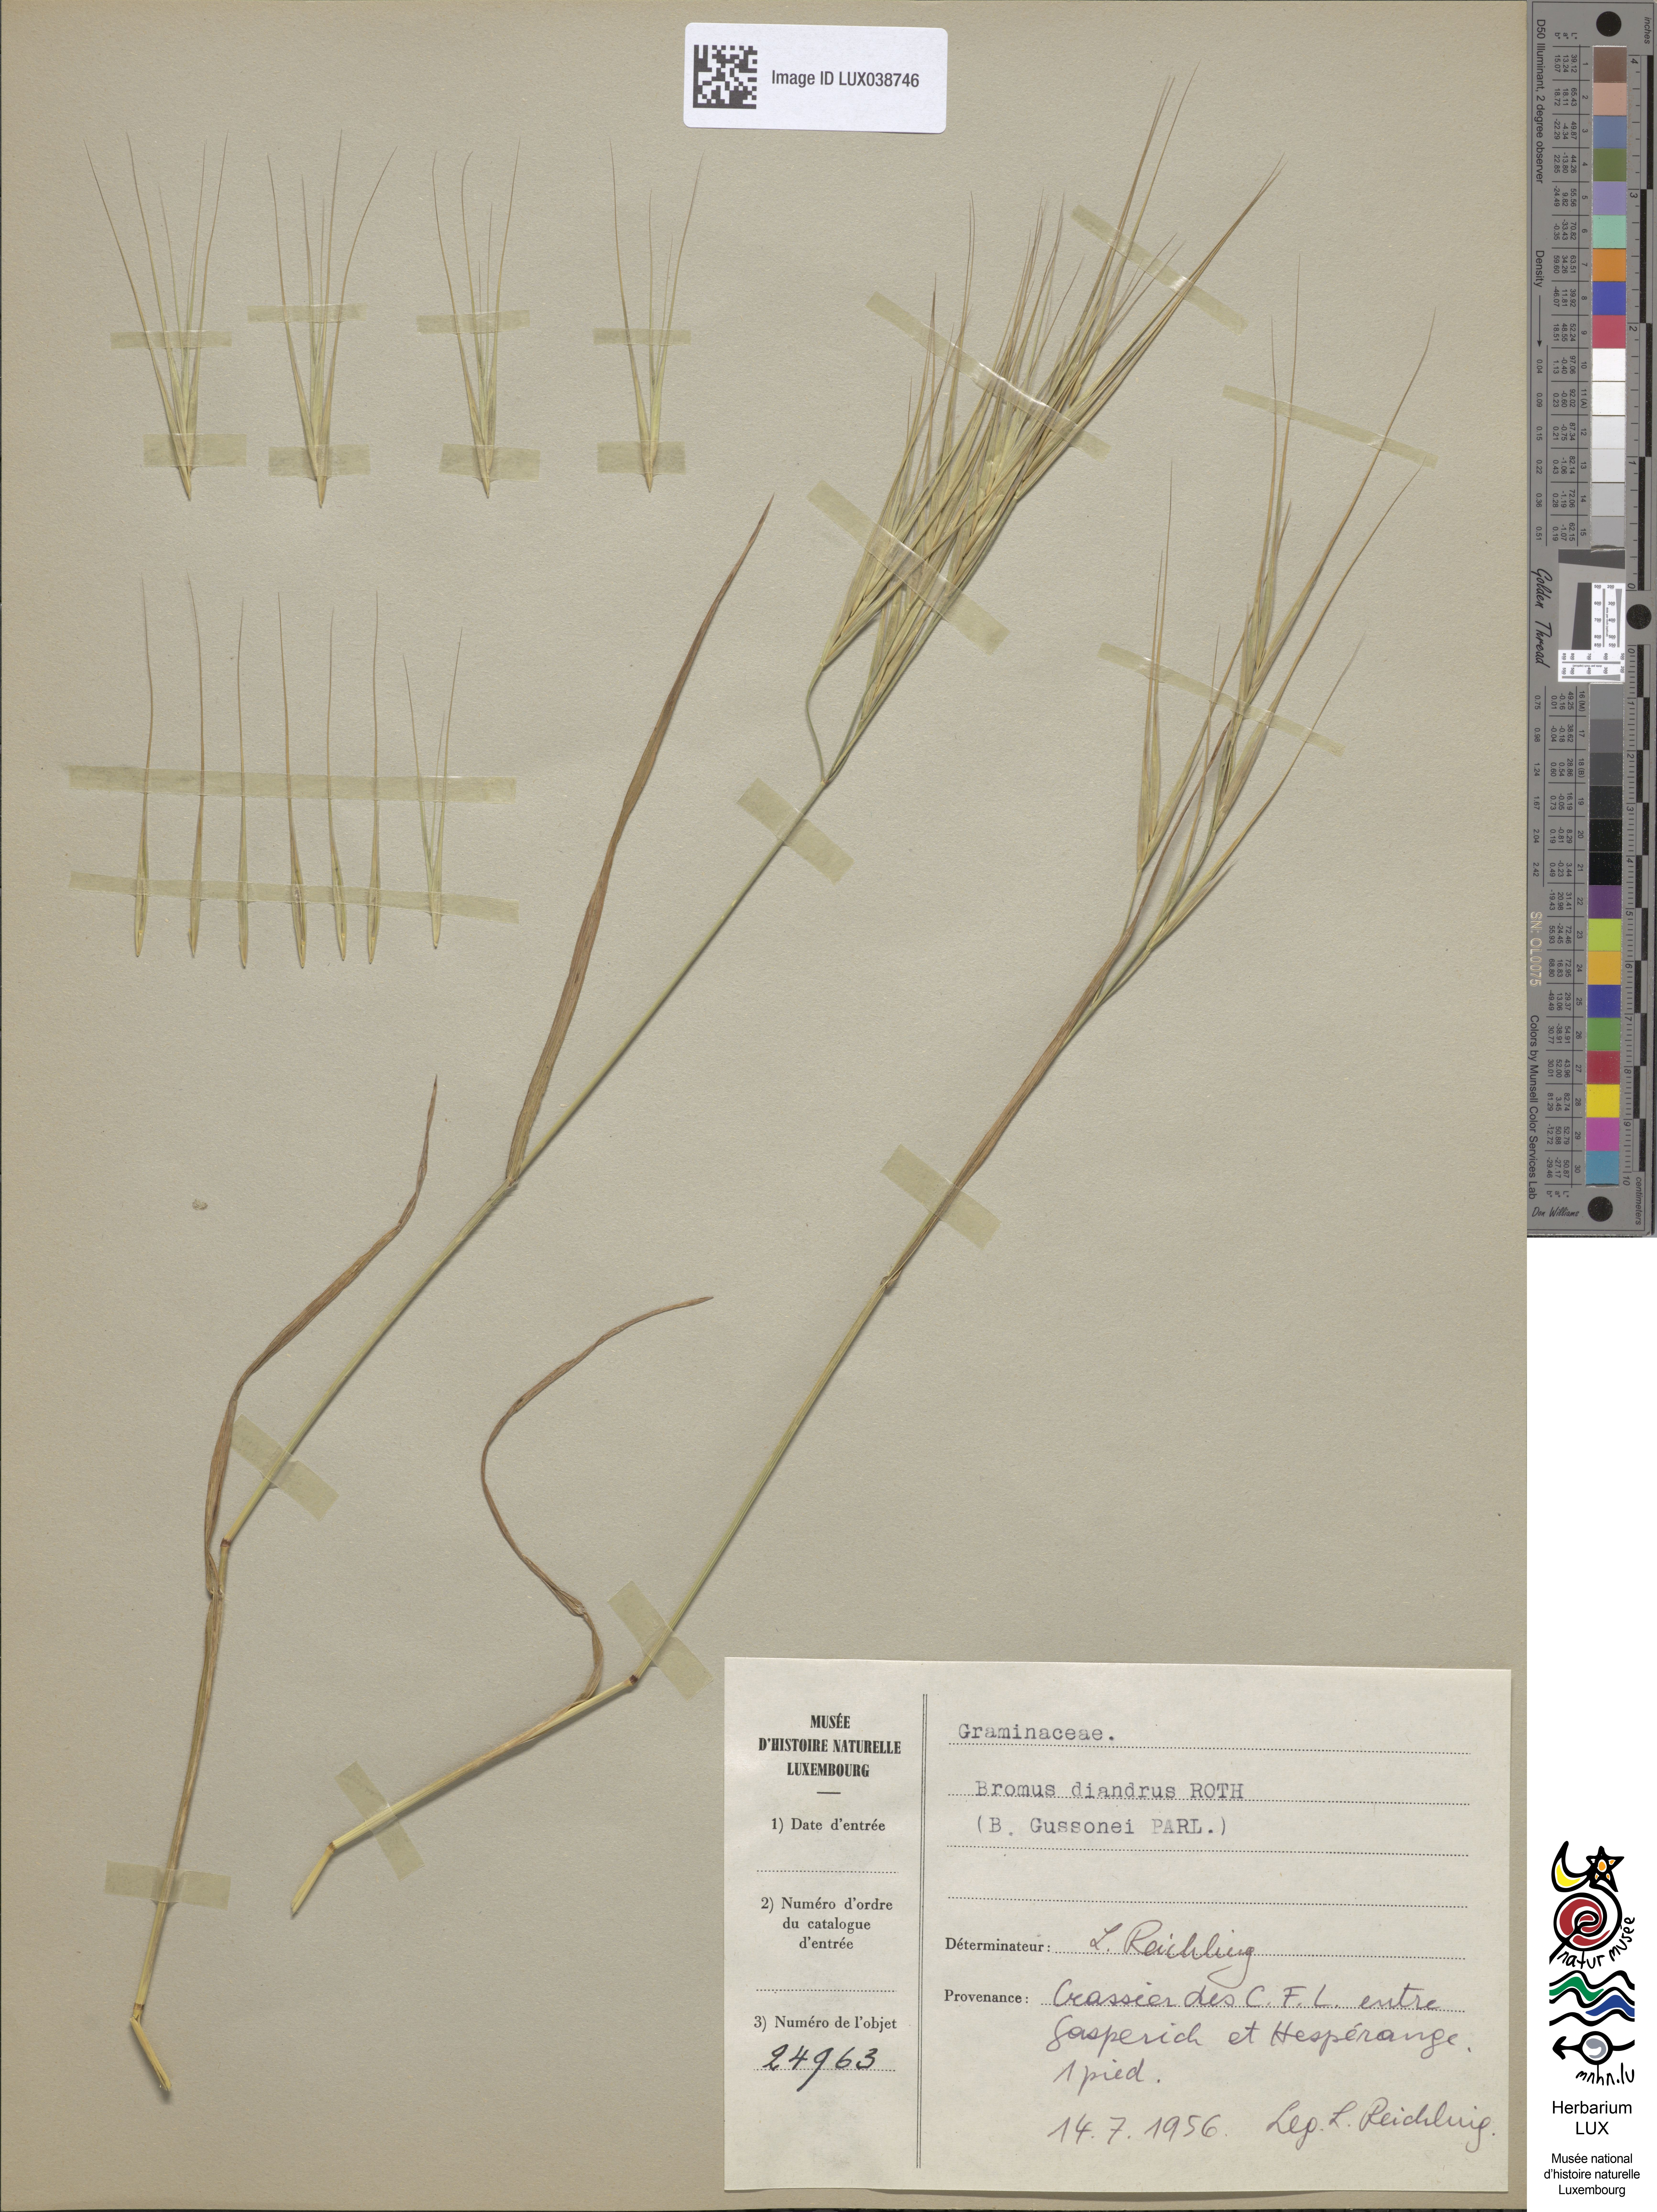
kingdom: Plantae
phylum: Tracheophyta
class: Liliopsida
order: Poales
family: Poaceae
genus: Bromus
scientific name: Bromus diandrus
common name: Ripgut brome
